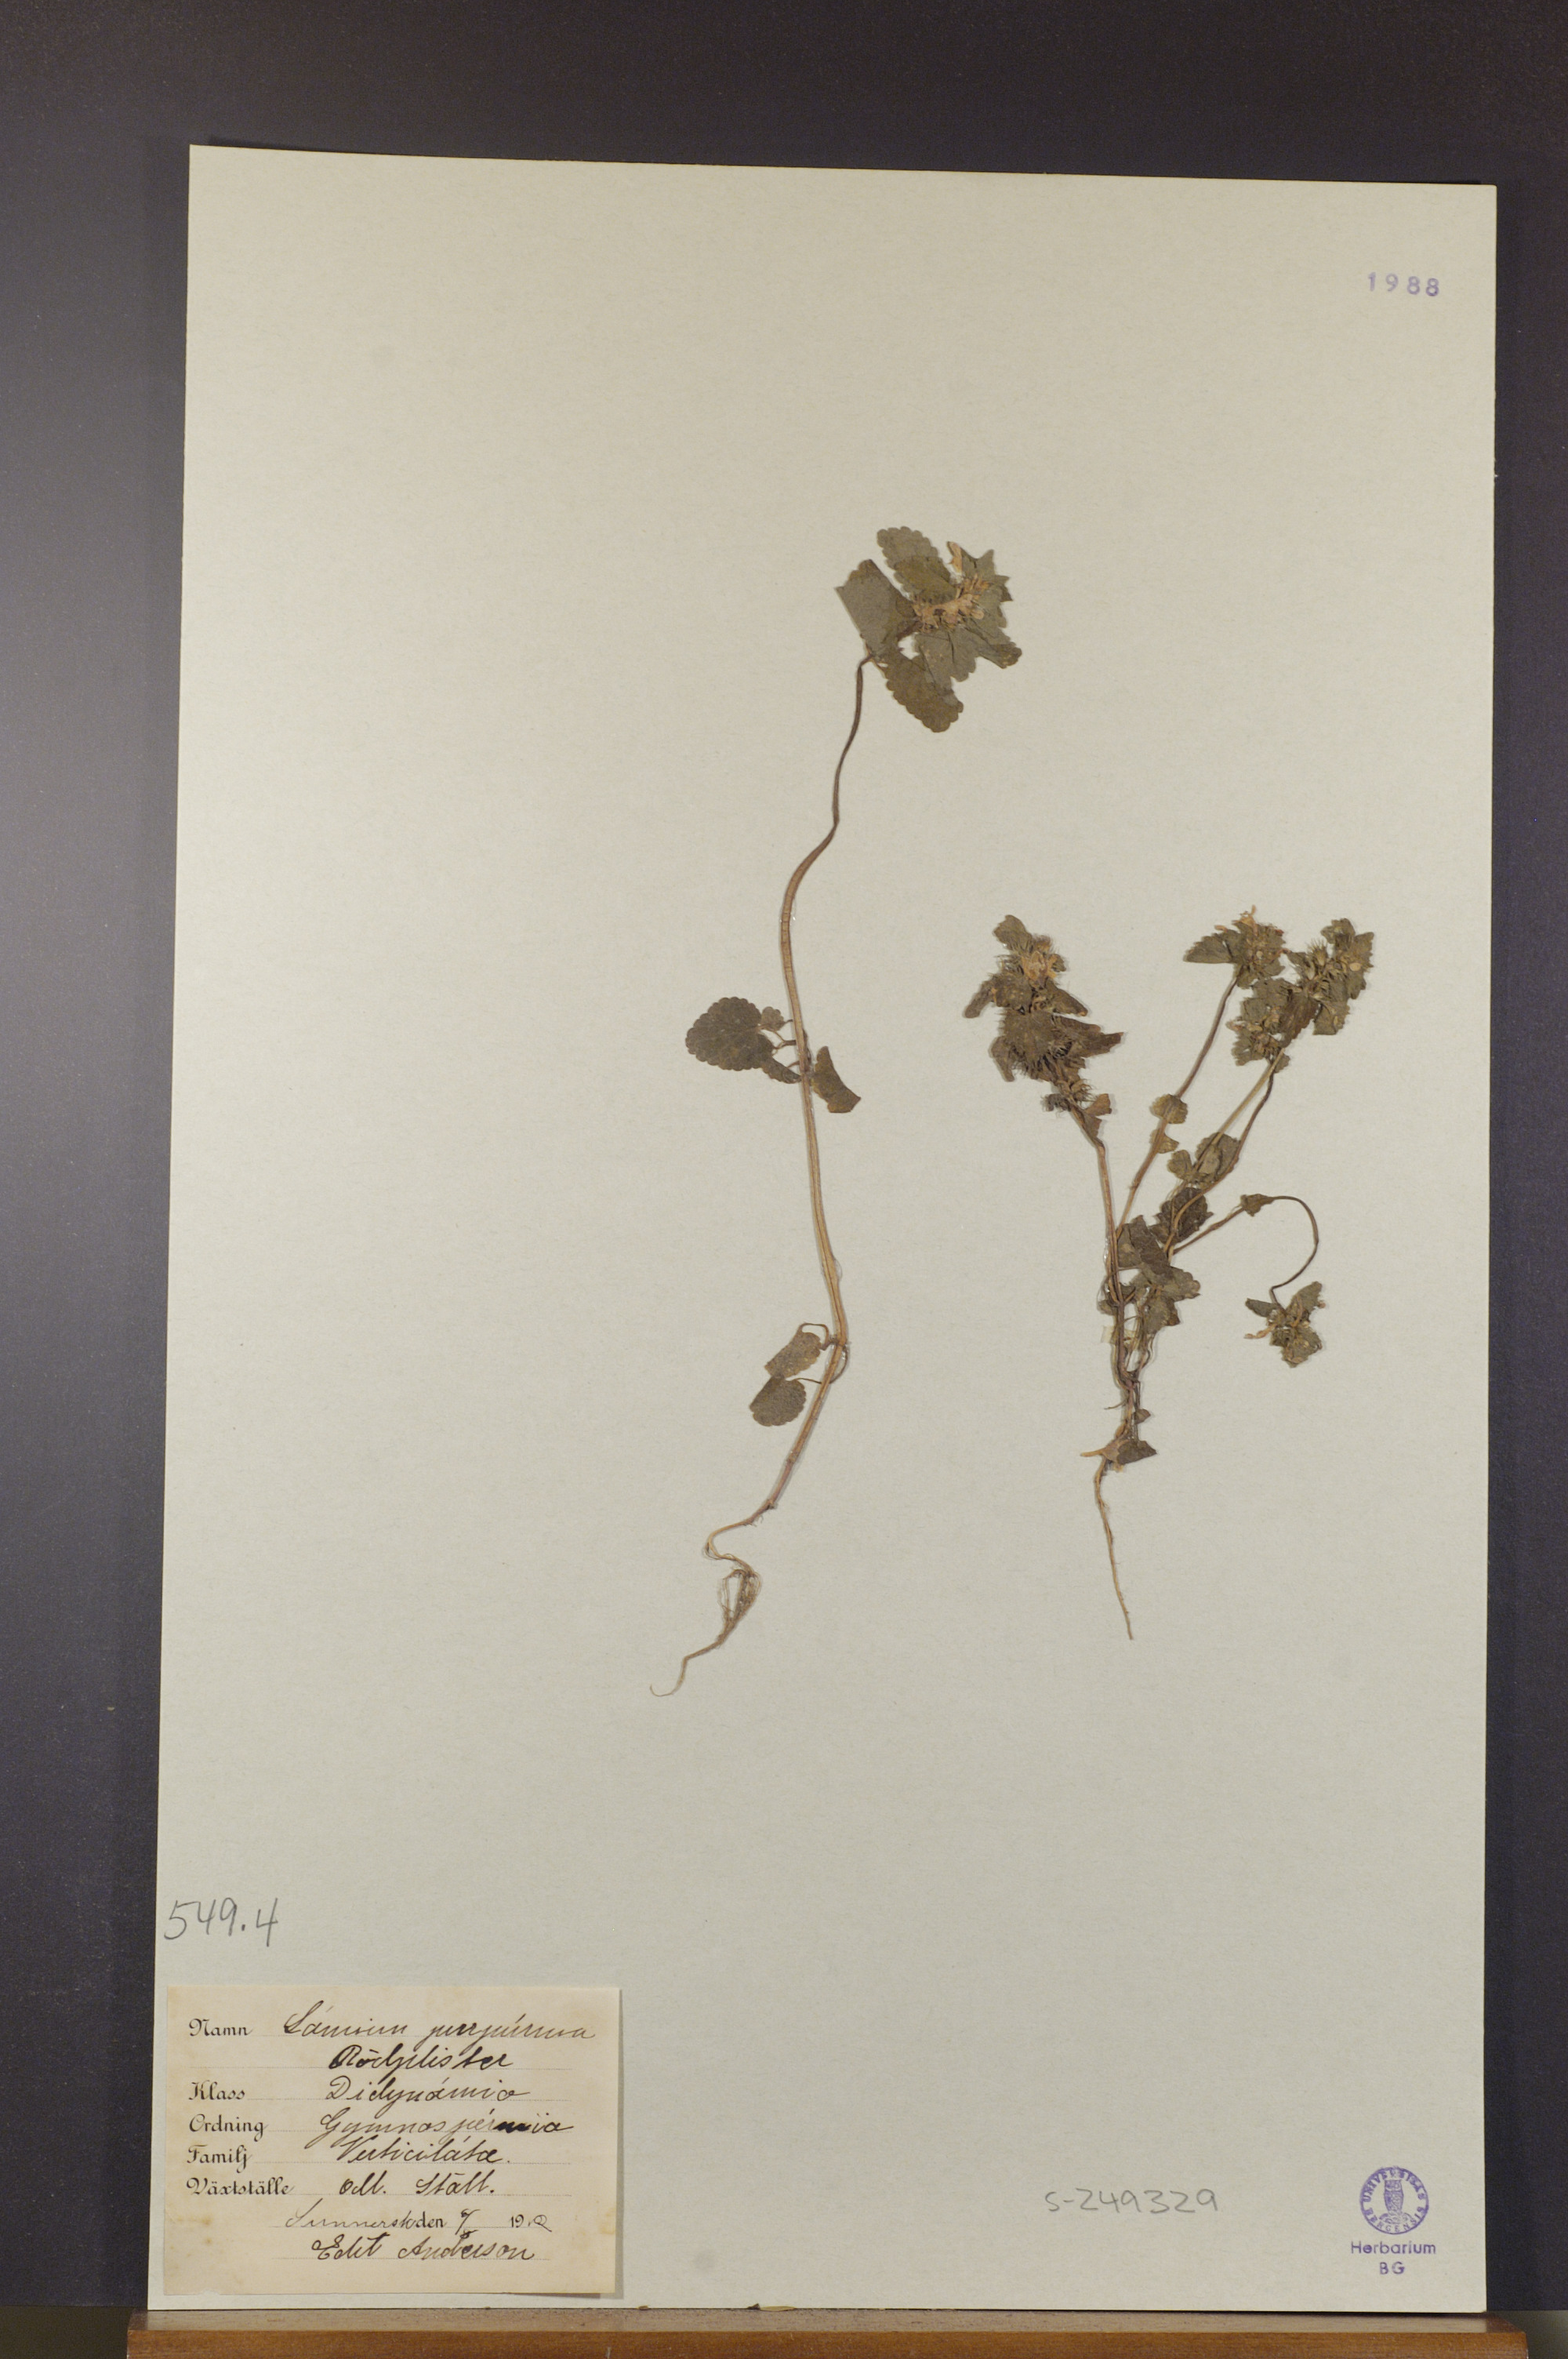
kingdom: Plantae
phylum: Tracheophyta
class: Magnoliopsida
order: Lamiales
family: Lamiaceae
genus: Lamium
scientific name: Lamium purpureum
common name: Red dead-nettle
